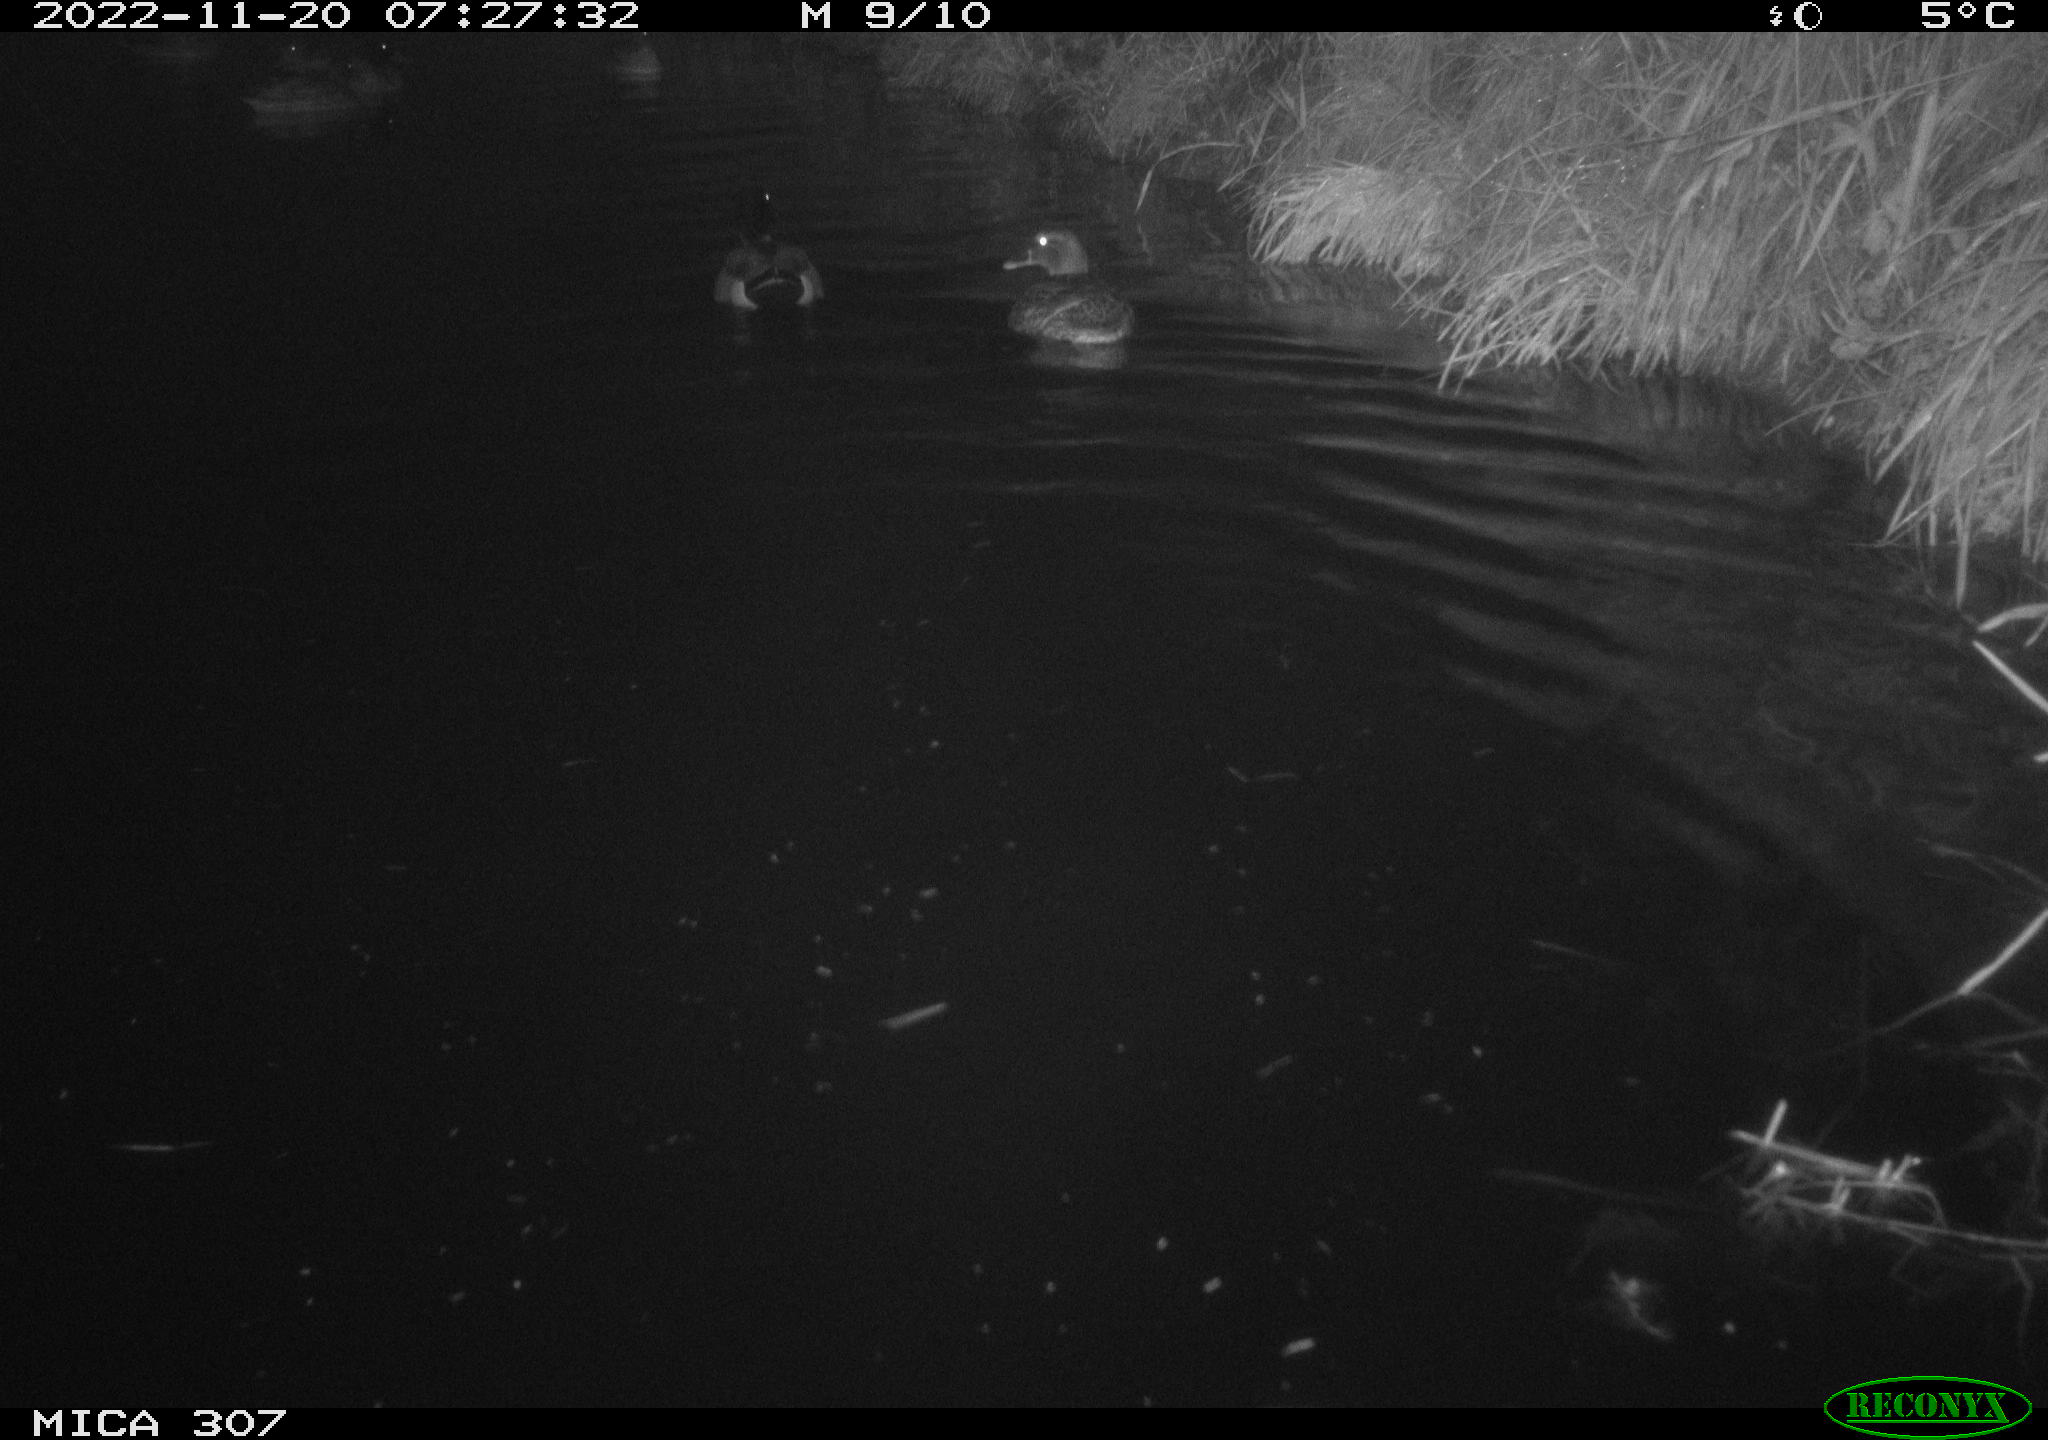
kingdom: Animalia
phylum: Chordata
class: Aves
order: Anseriformes
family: Anatidae
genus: Anas
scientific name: Anas
